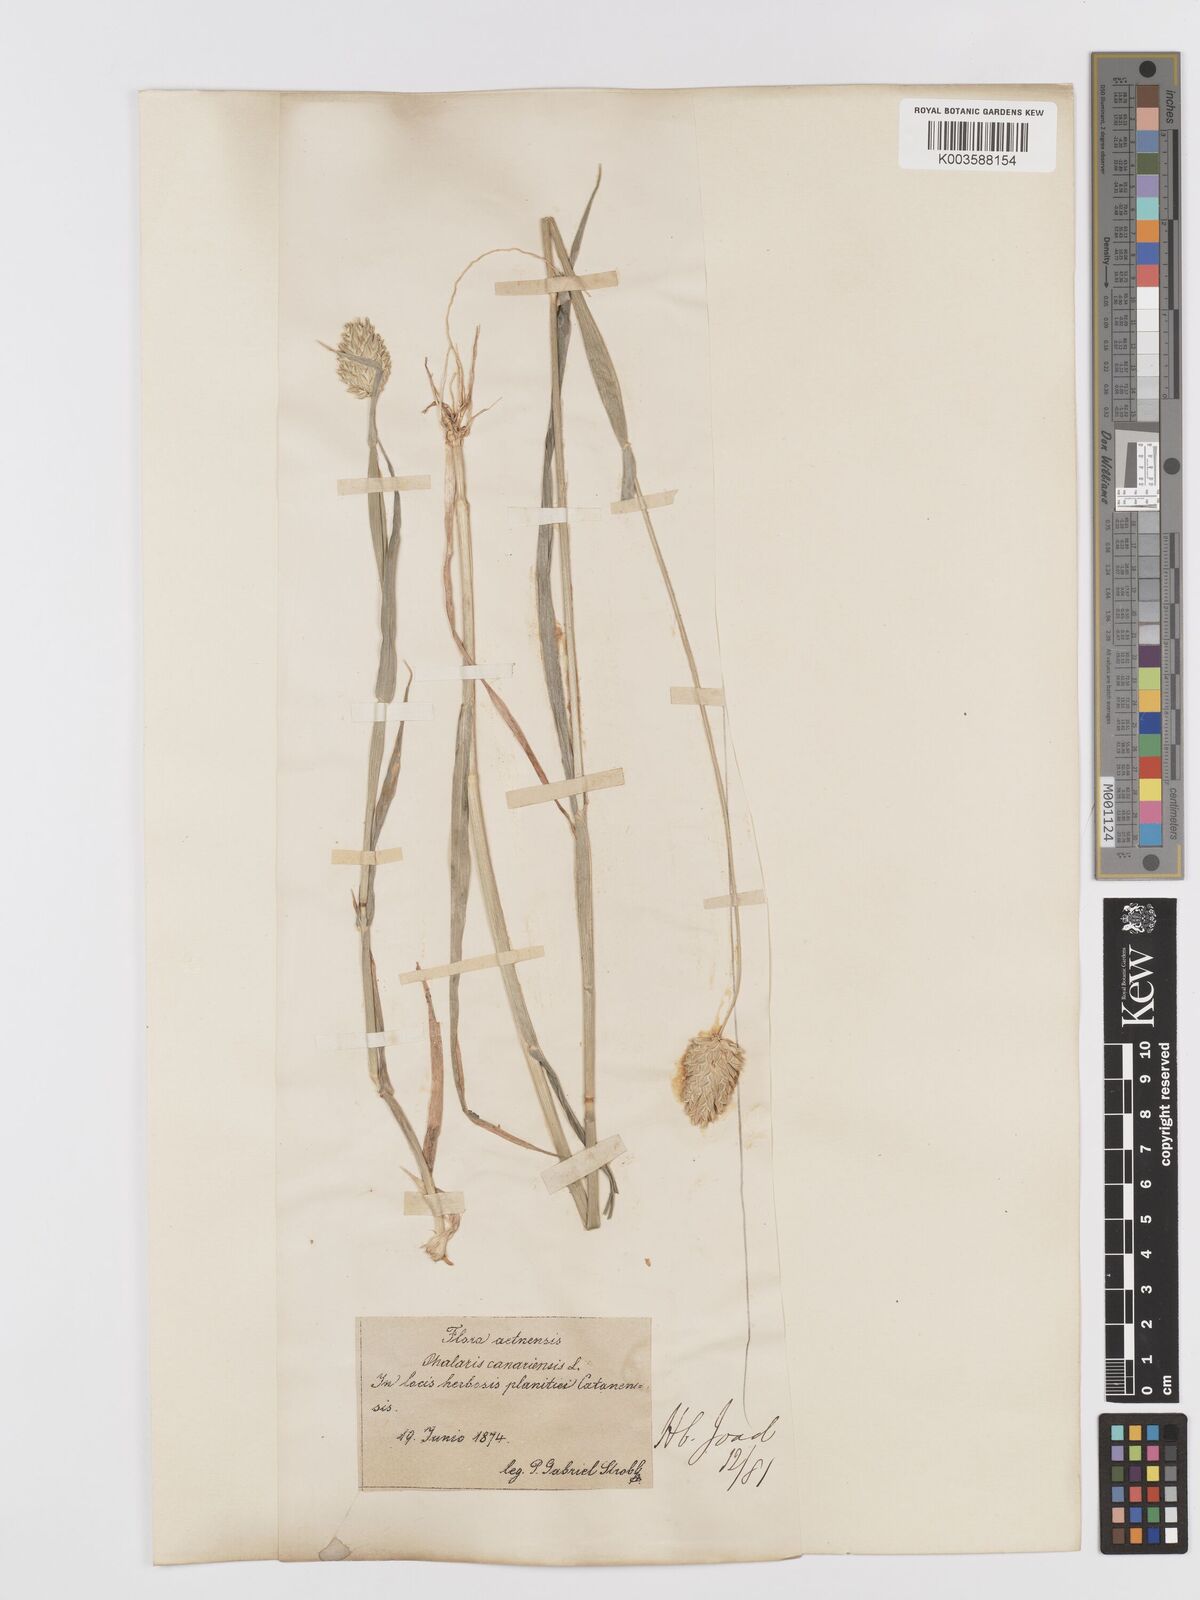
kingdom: Plantae
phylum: Tracheophyta
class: Liliopsida
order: Poales
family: Poaceae
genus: Phalaris
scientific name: Phalaris canariensis
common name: Annual canarygrass
